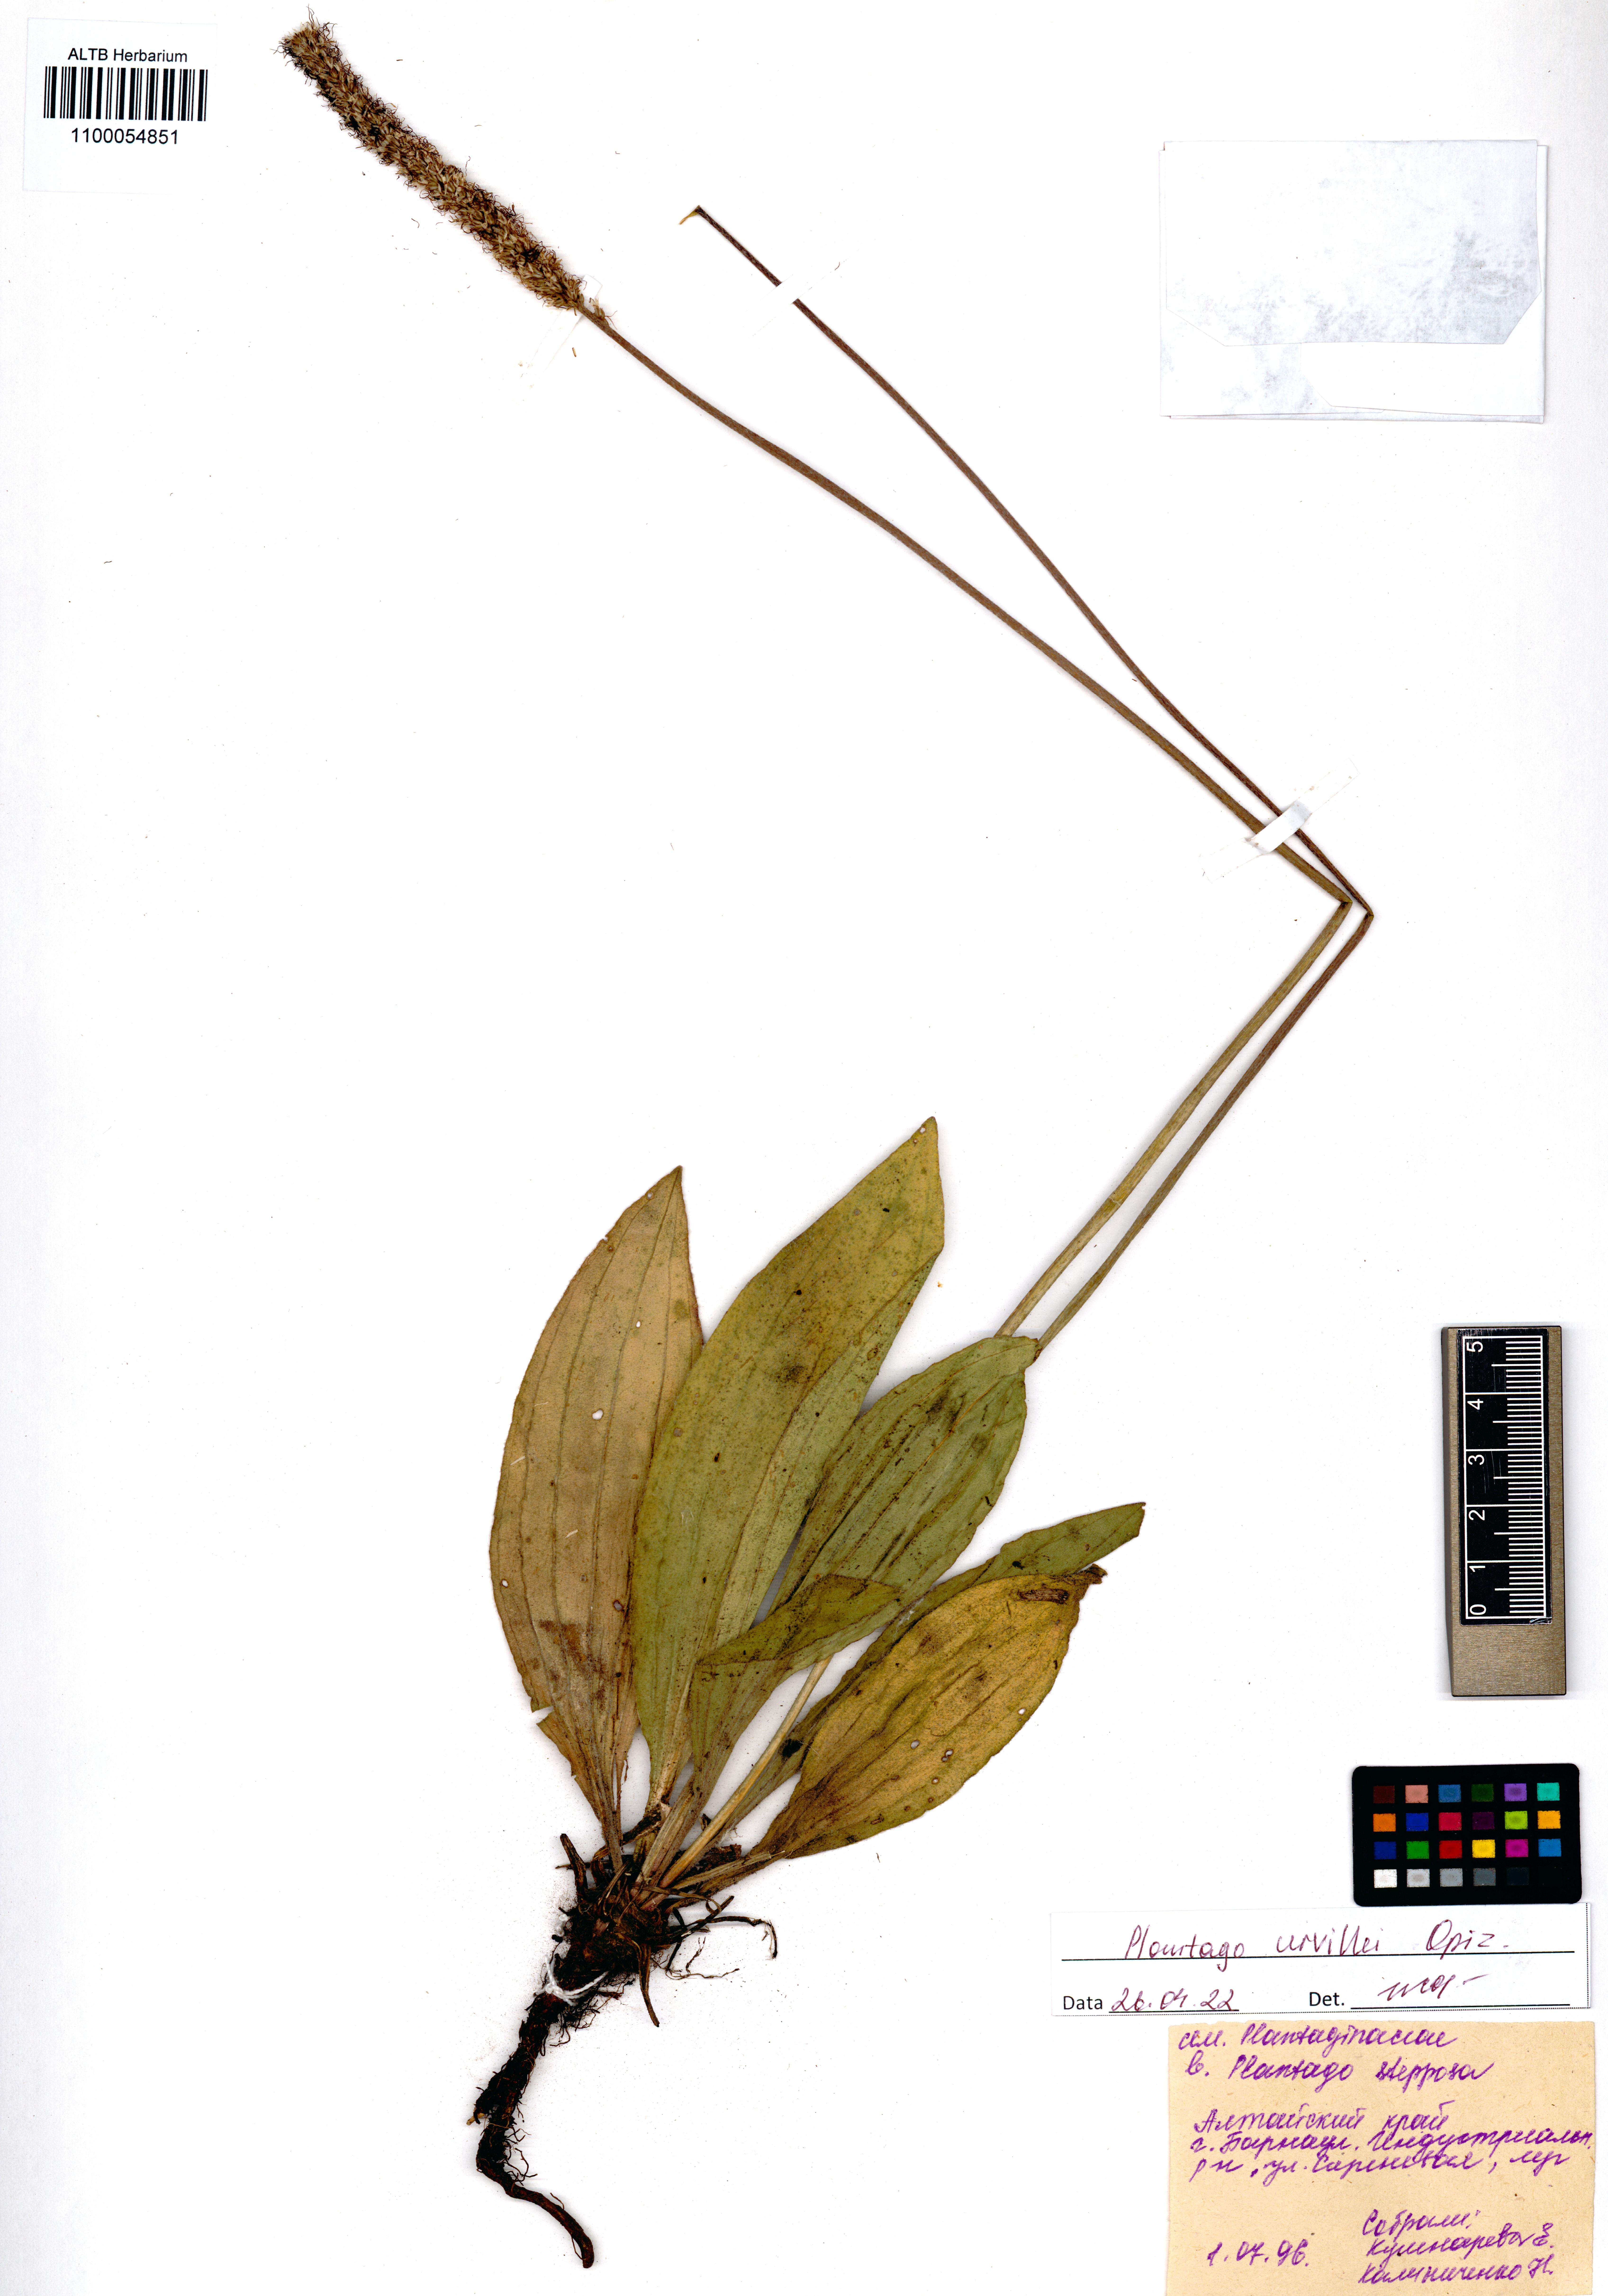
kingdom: Plantae
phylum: Tracheophyta
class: Magnoliopsida
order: Lamiales
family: Plantaginaceae
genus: Plantago
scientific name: Plantago urvillei
